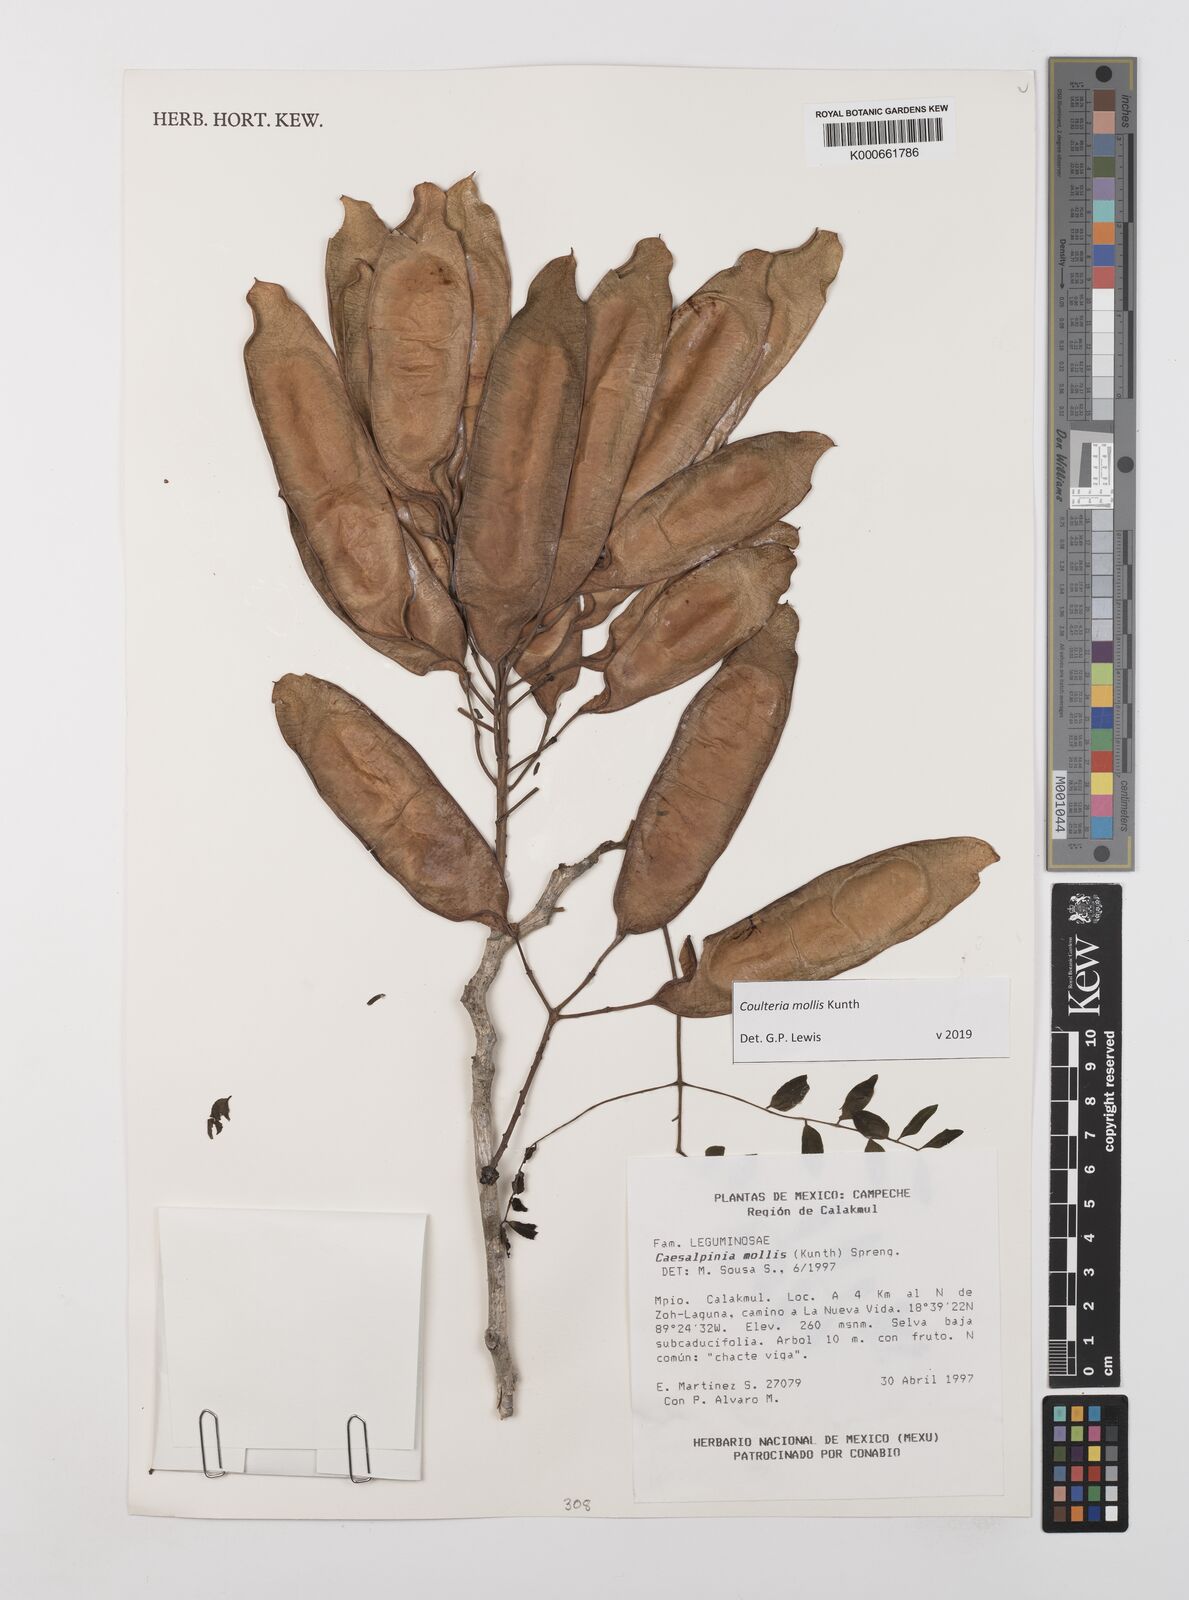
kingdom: Plantae
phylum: Tracheophyta
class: Magnoliopsida
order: Fabales
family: Fabaceae
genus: Coulteria
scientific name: Coulteria mollis
